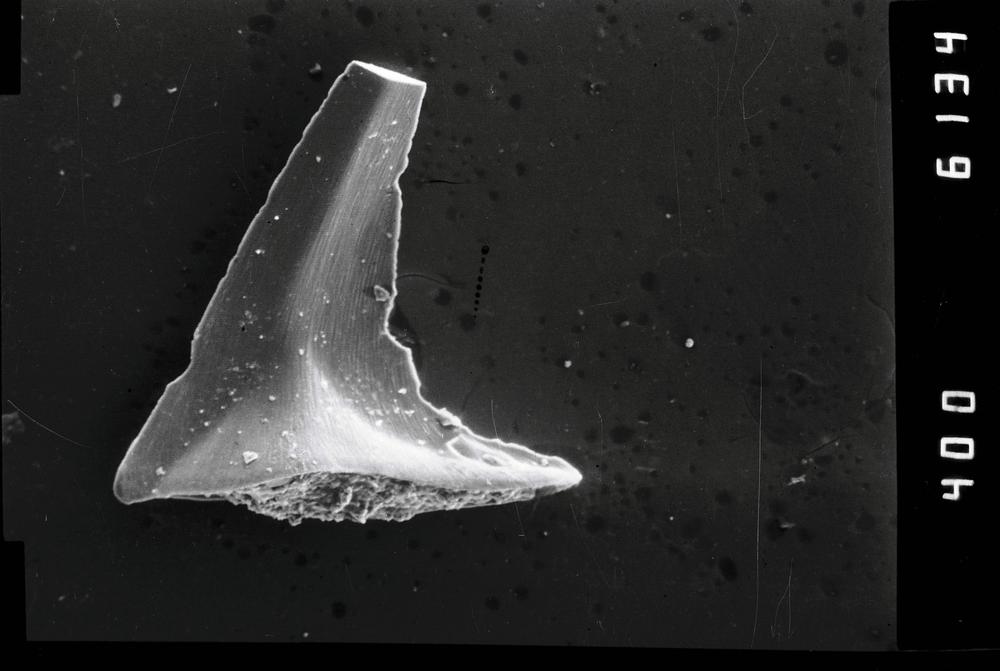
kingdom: Animalia
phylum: Annelida
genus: Paltodus
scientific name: Paltodus
